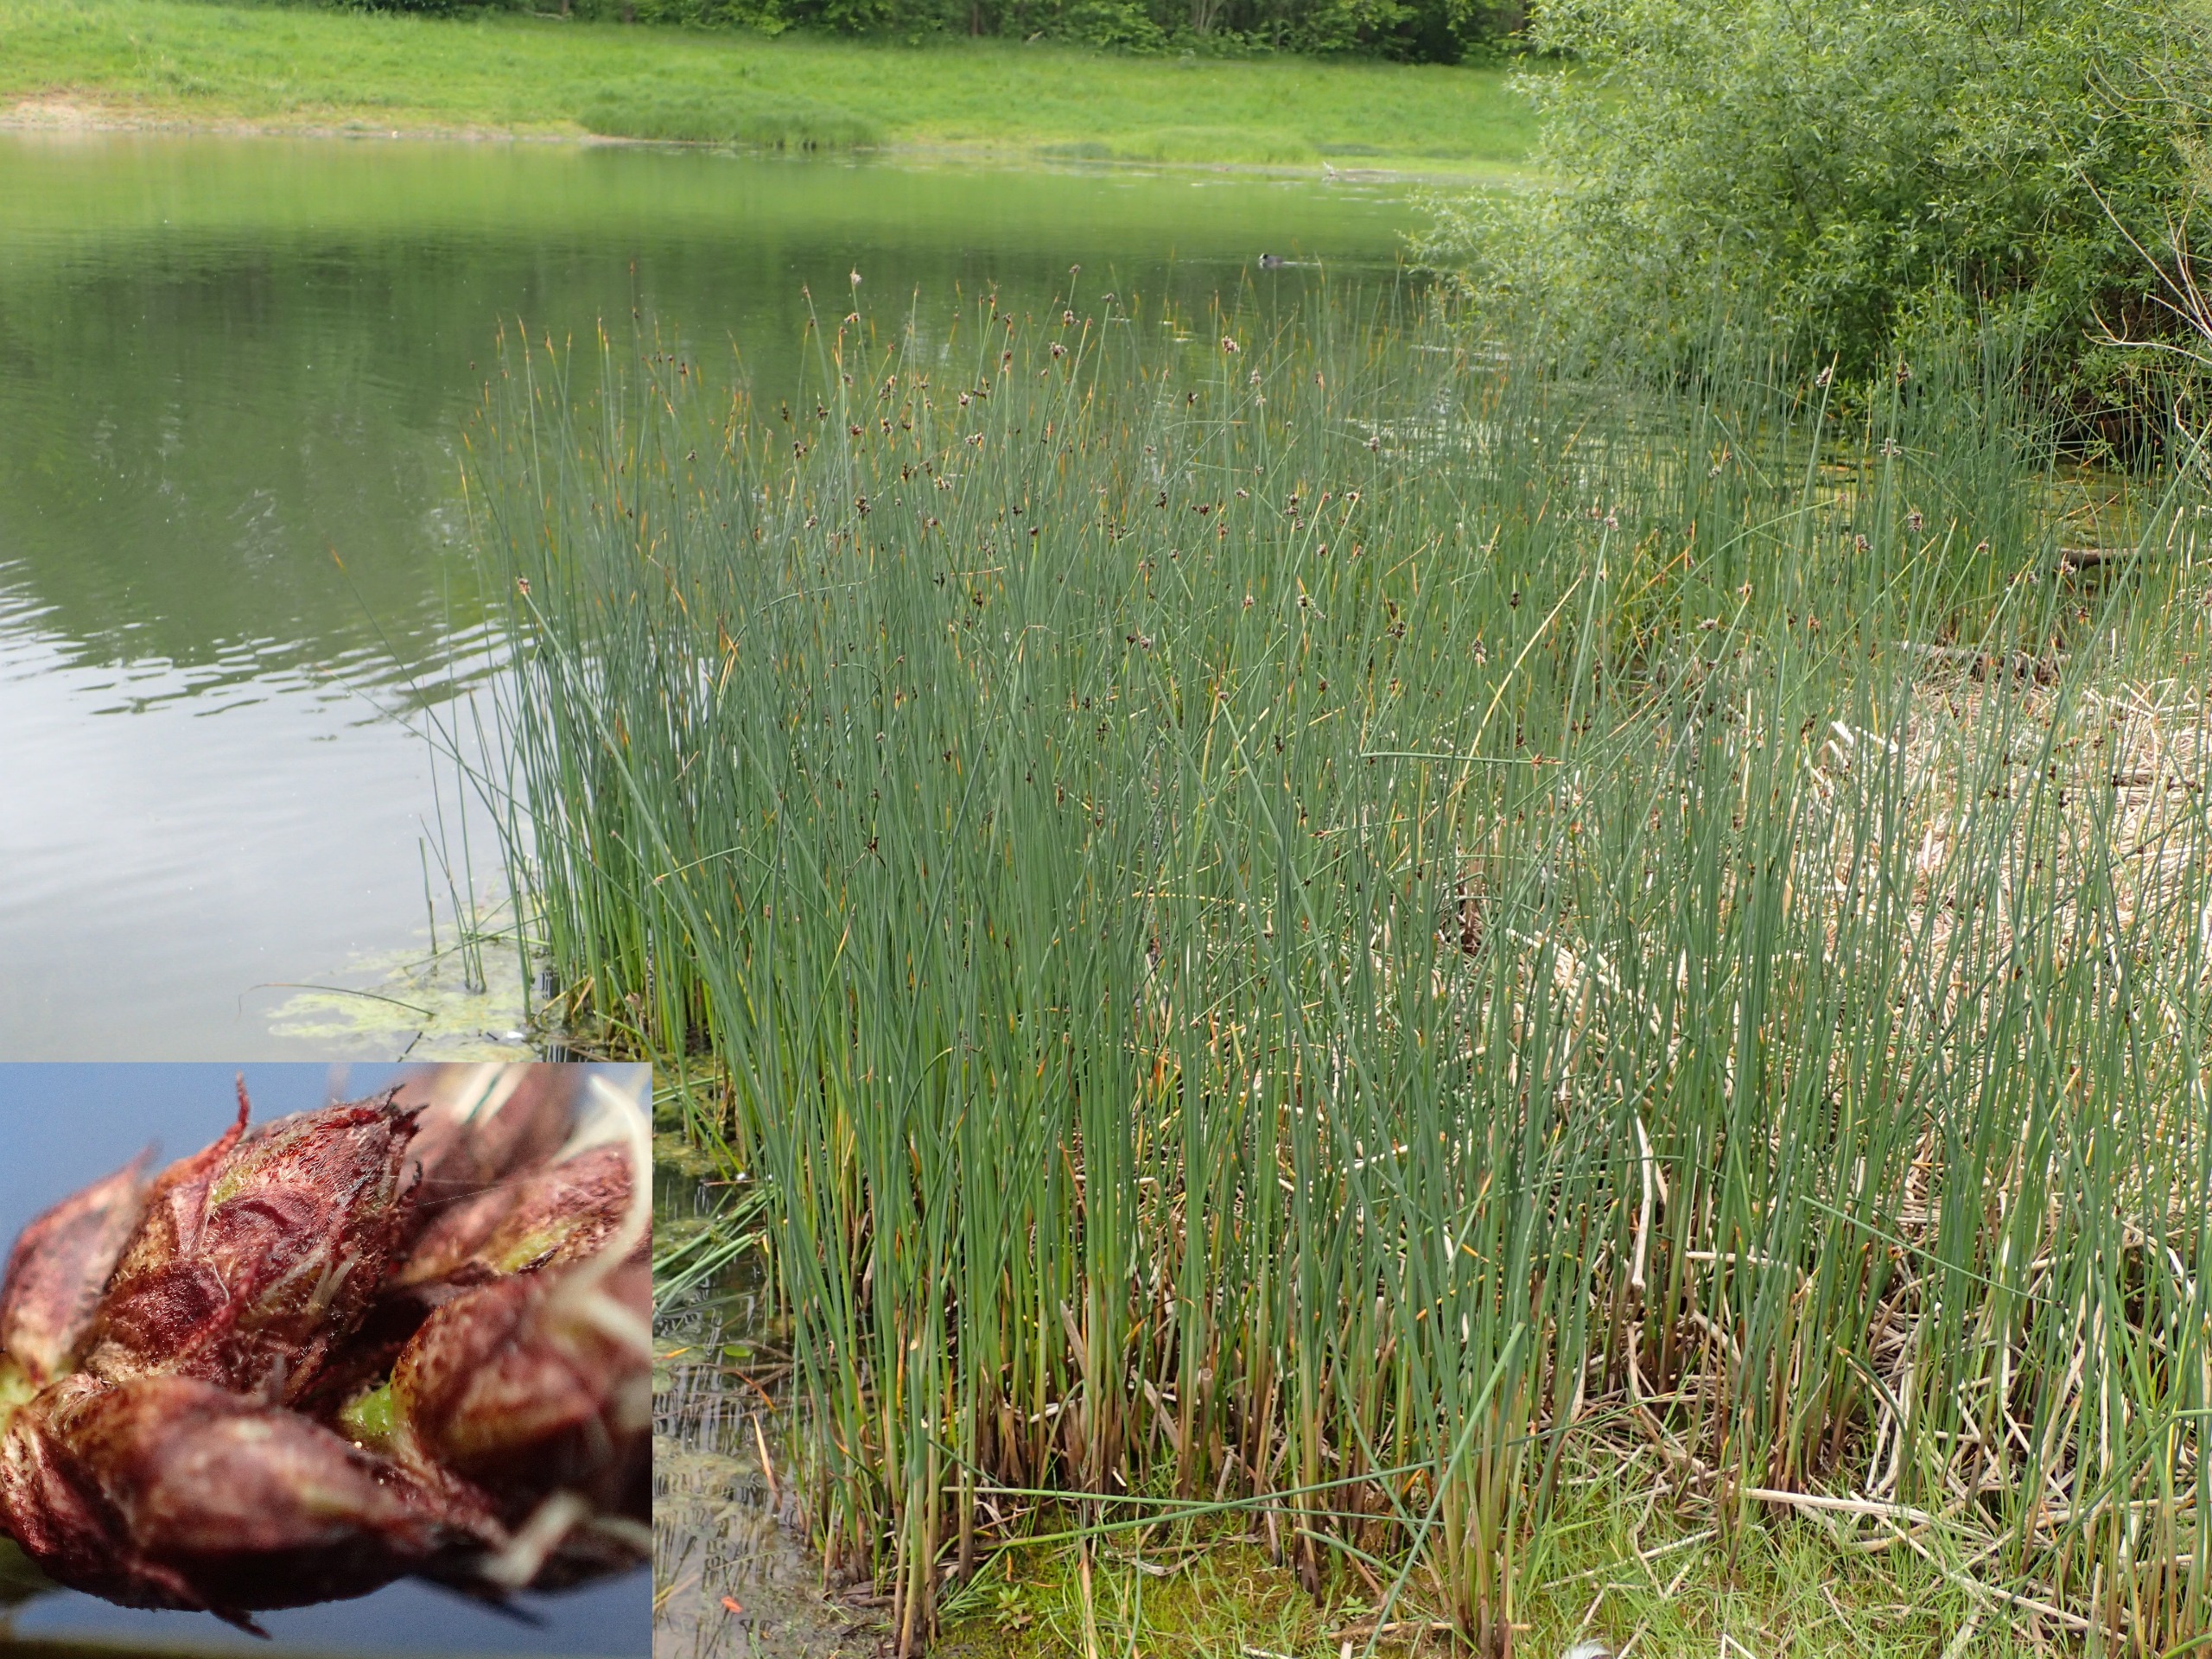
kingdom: Plantae
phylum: Tracheophyta
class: Liliopsida
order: Poales
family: Cyperaceae
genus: Schoenoplectus
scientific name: Schoenoplectus tabernaemontani
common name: Blågrøn kogleaks
